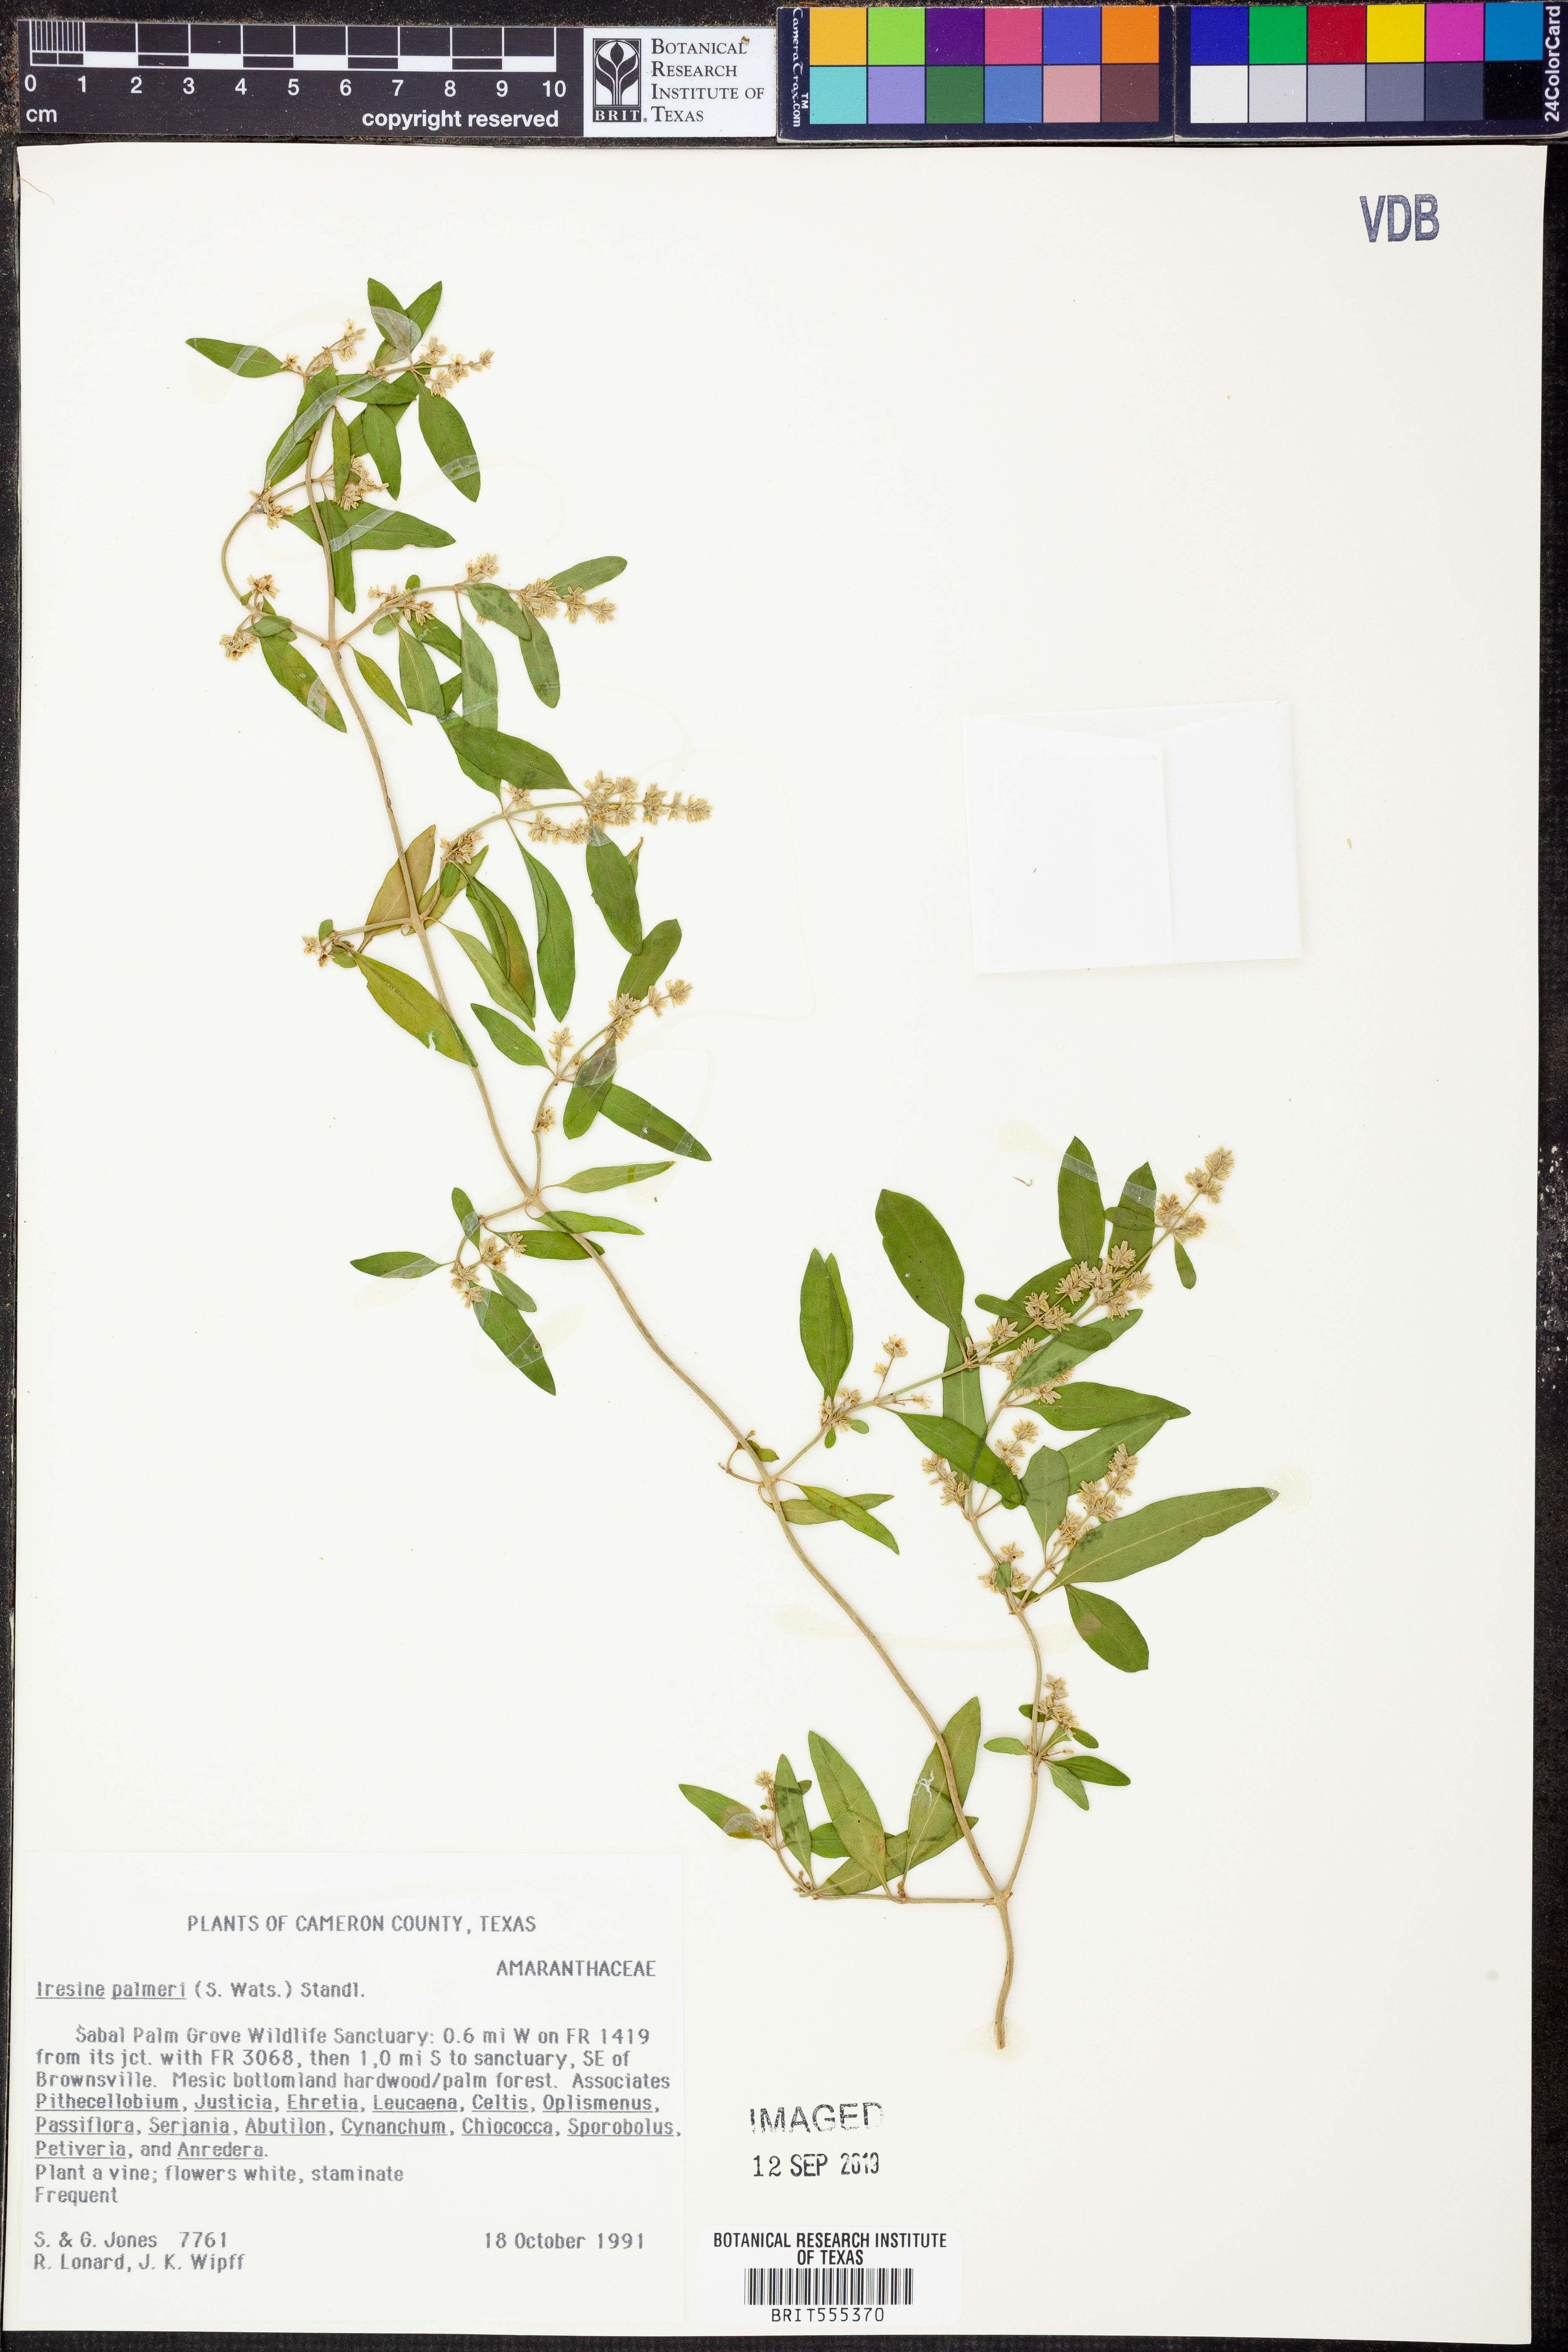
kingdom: Plantae
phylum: Tracheophyta
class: Magnoliopsida
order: Caryophyllales
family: Amaranthaceae
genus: Iresine
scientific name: Iresine palmeri
